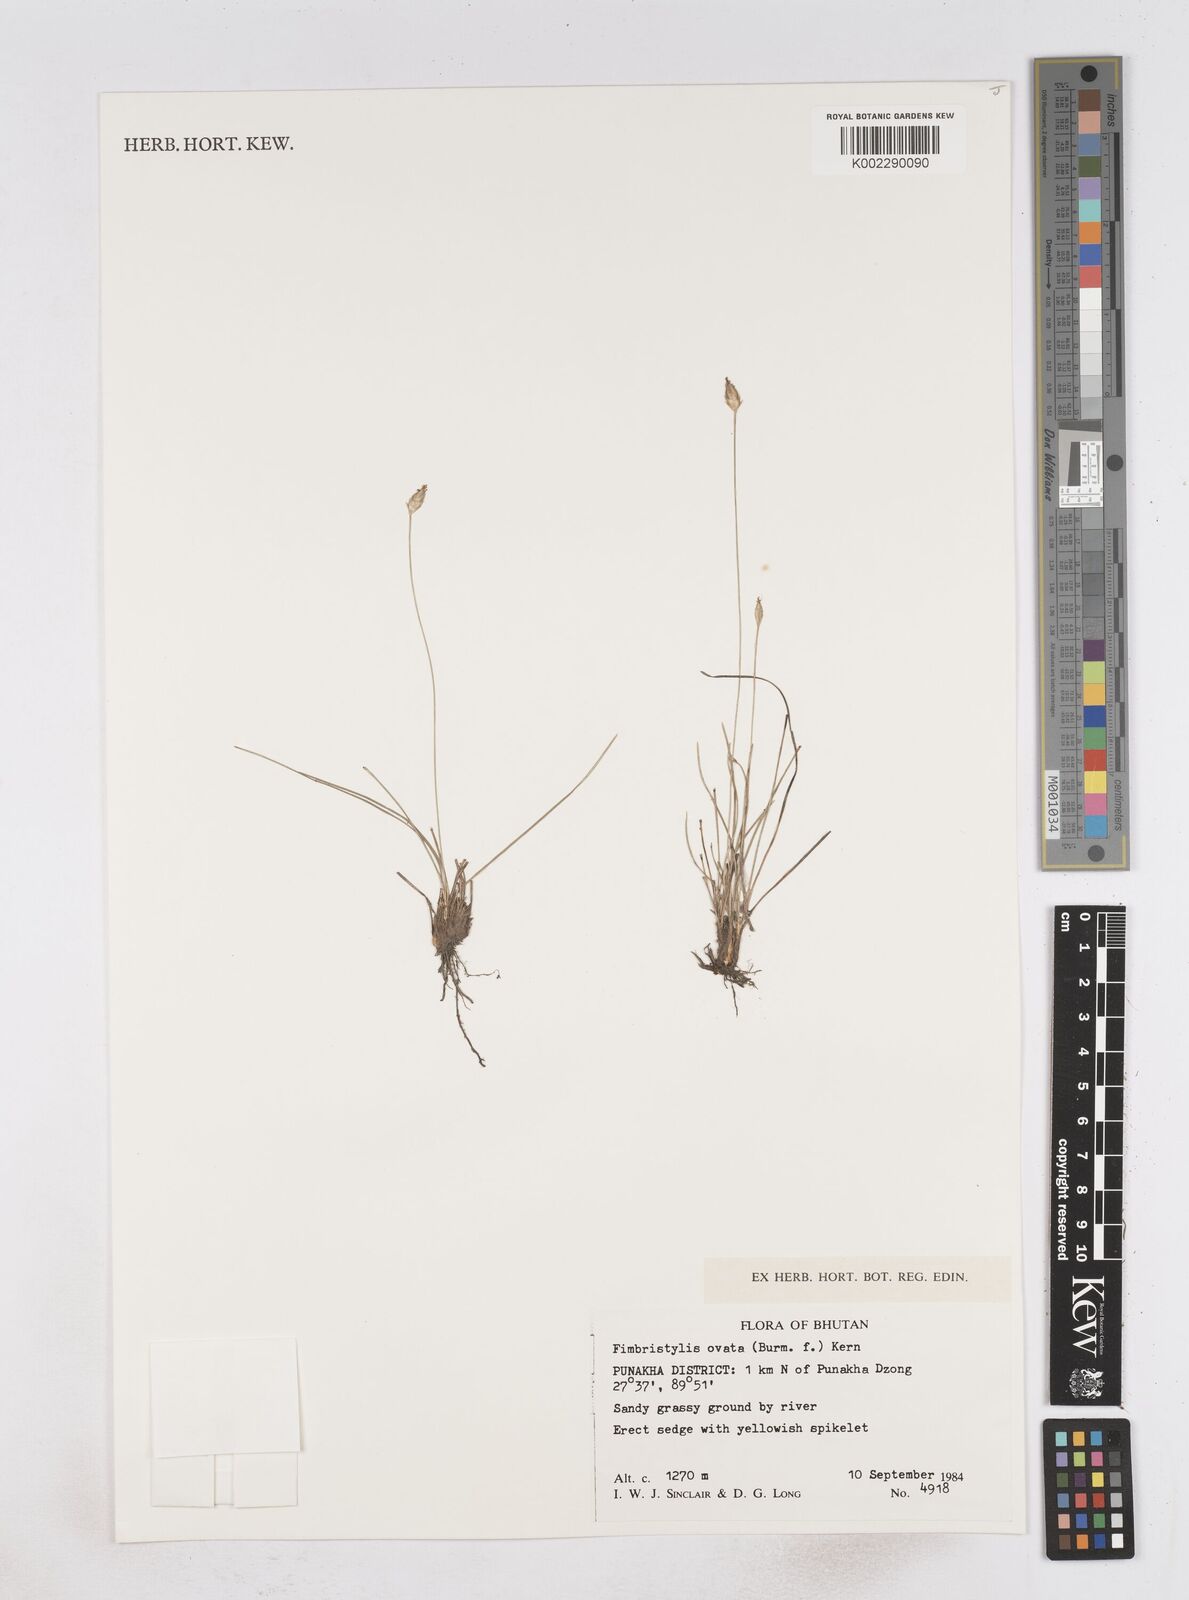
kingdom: Plantae
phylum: Tracheophyta
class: Liliopsida
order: Poales
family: Cyperaceae
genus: Abildgaardia
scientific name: Abildgaardia ovata
